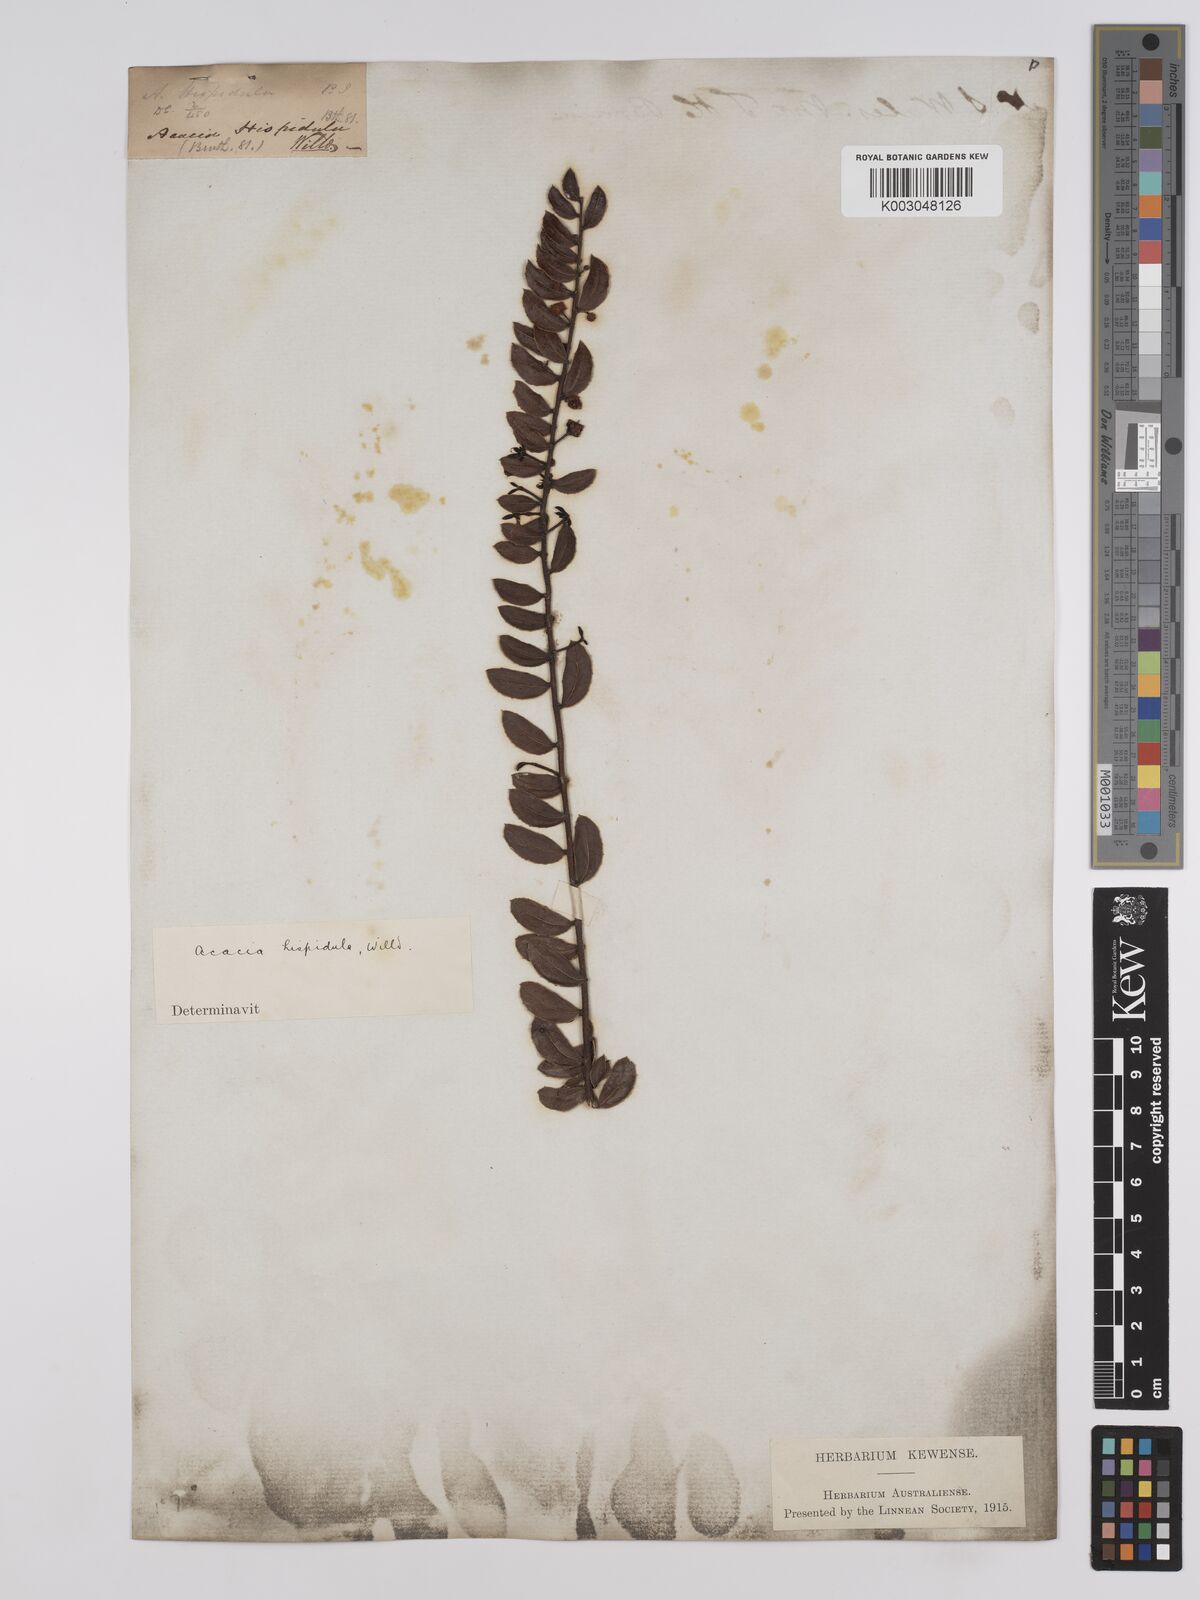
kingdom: Plantae
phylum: Tracheophyta
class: Magnoliopsida
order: Fabales
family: Fabaceae
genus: Acacia
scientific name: Acacia hispidula
